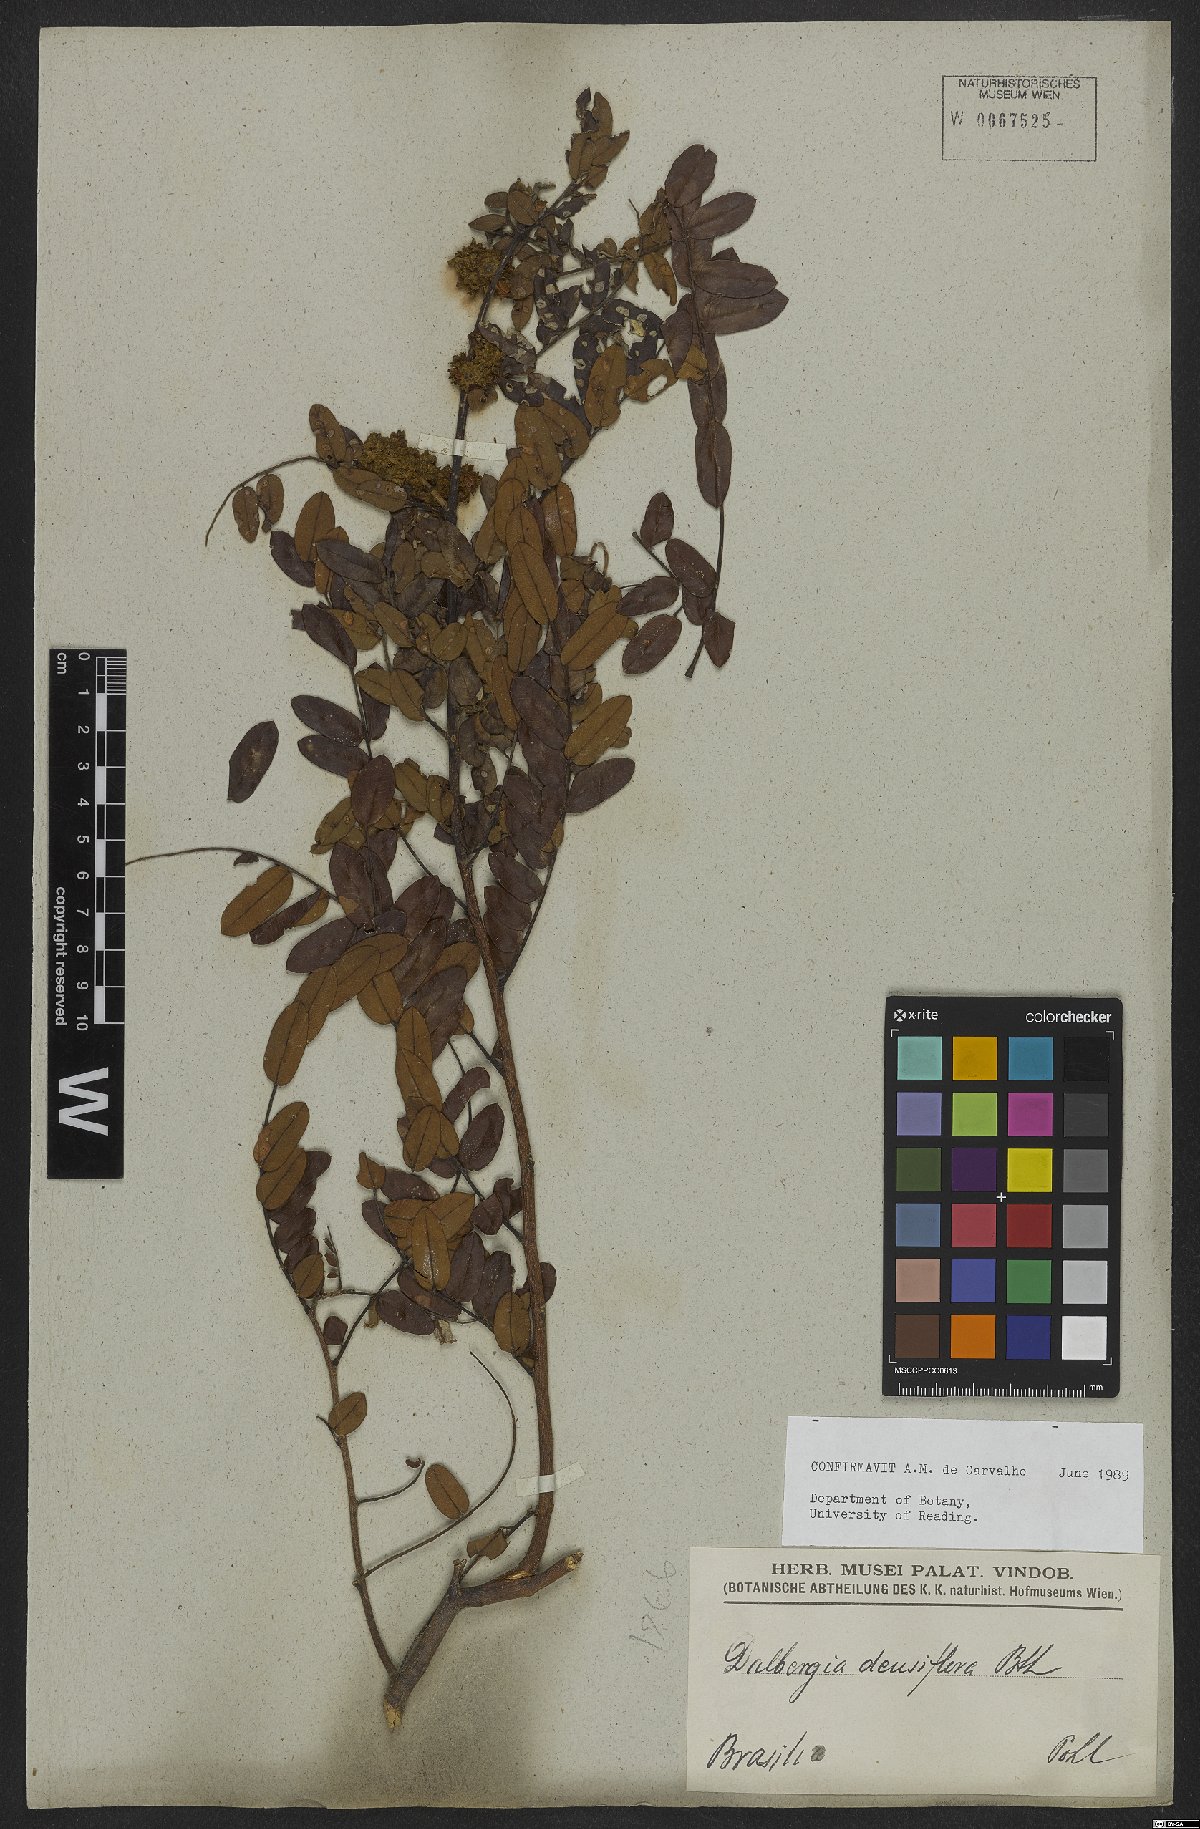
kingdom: Plantae
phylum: Tracheophyta
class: Magnoliopsida
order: Fabales
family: Fabaceae
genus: Dalbergia
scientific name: Dalbergia densiflora
